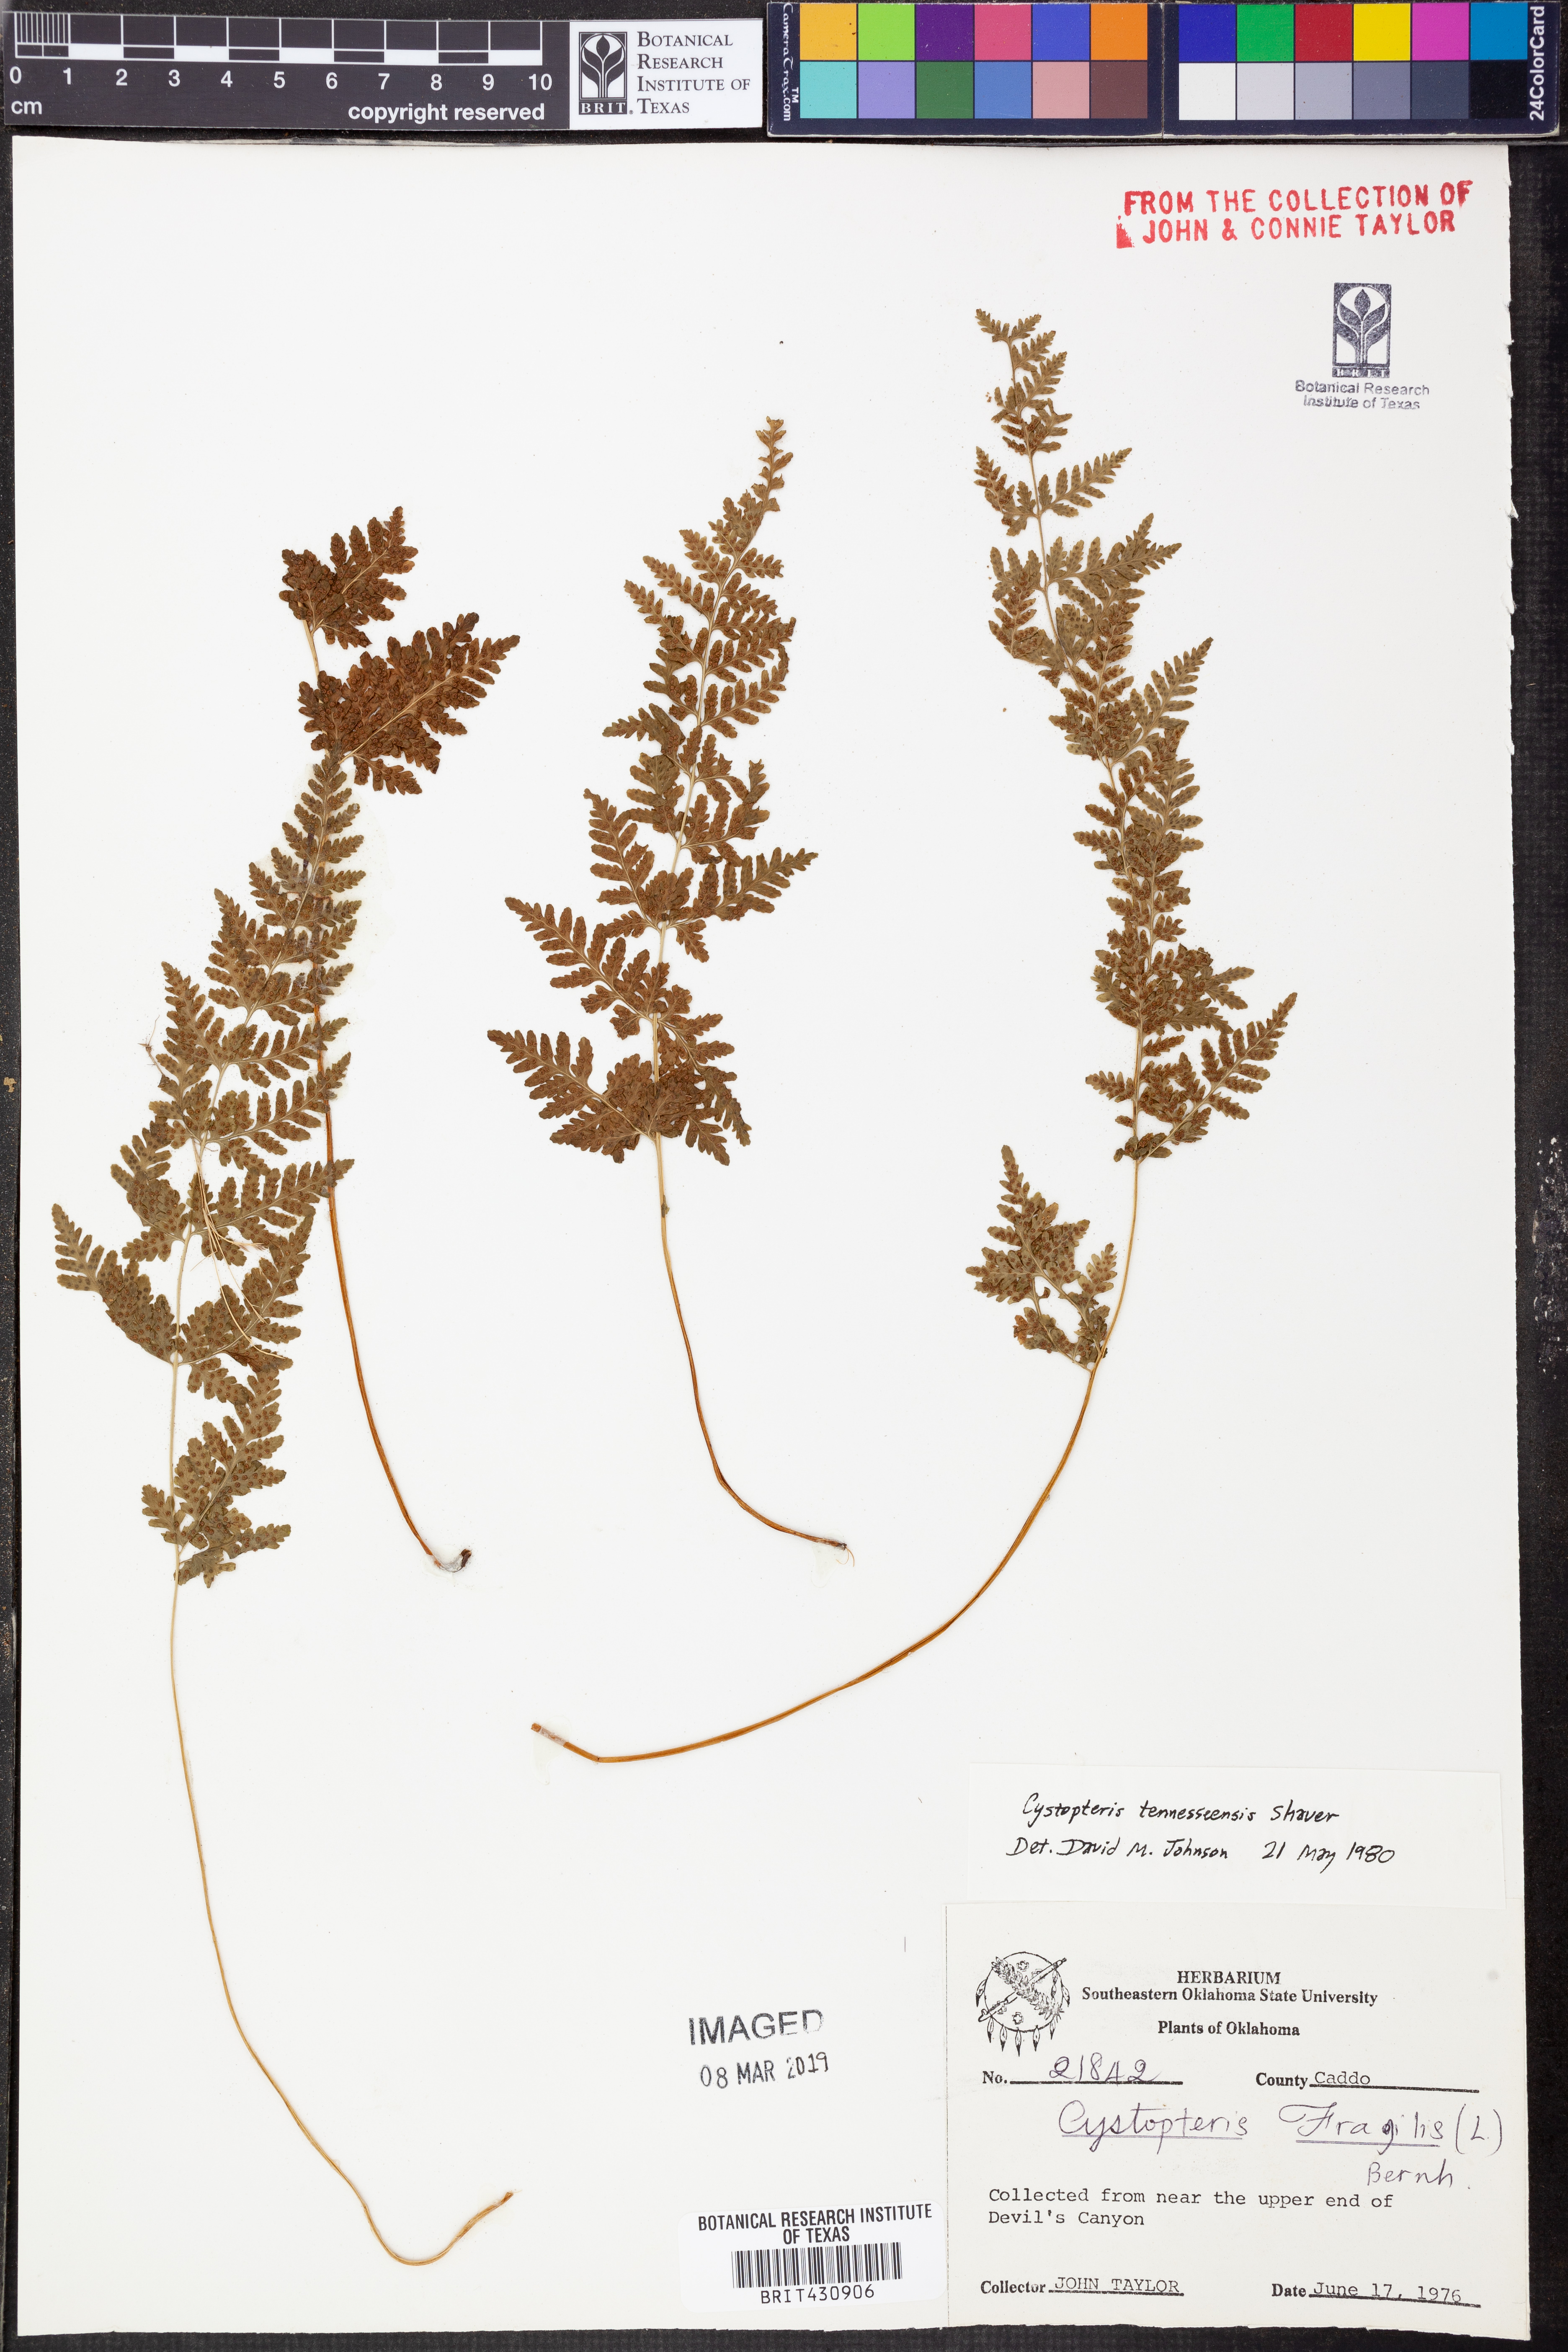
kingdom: Plantae
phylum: Tracheophyta
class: Polypodiopsida
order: Polypodiales
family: Cystopteridaceae
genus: Cystopteris
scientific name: Cystopteris tennesseensis
